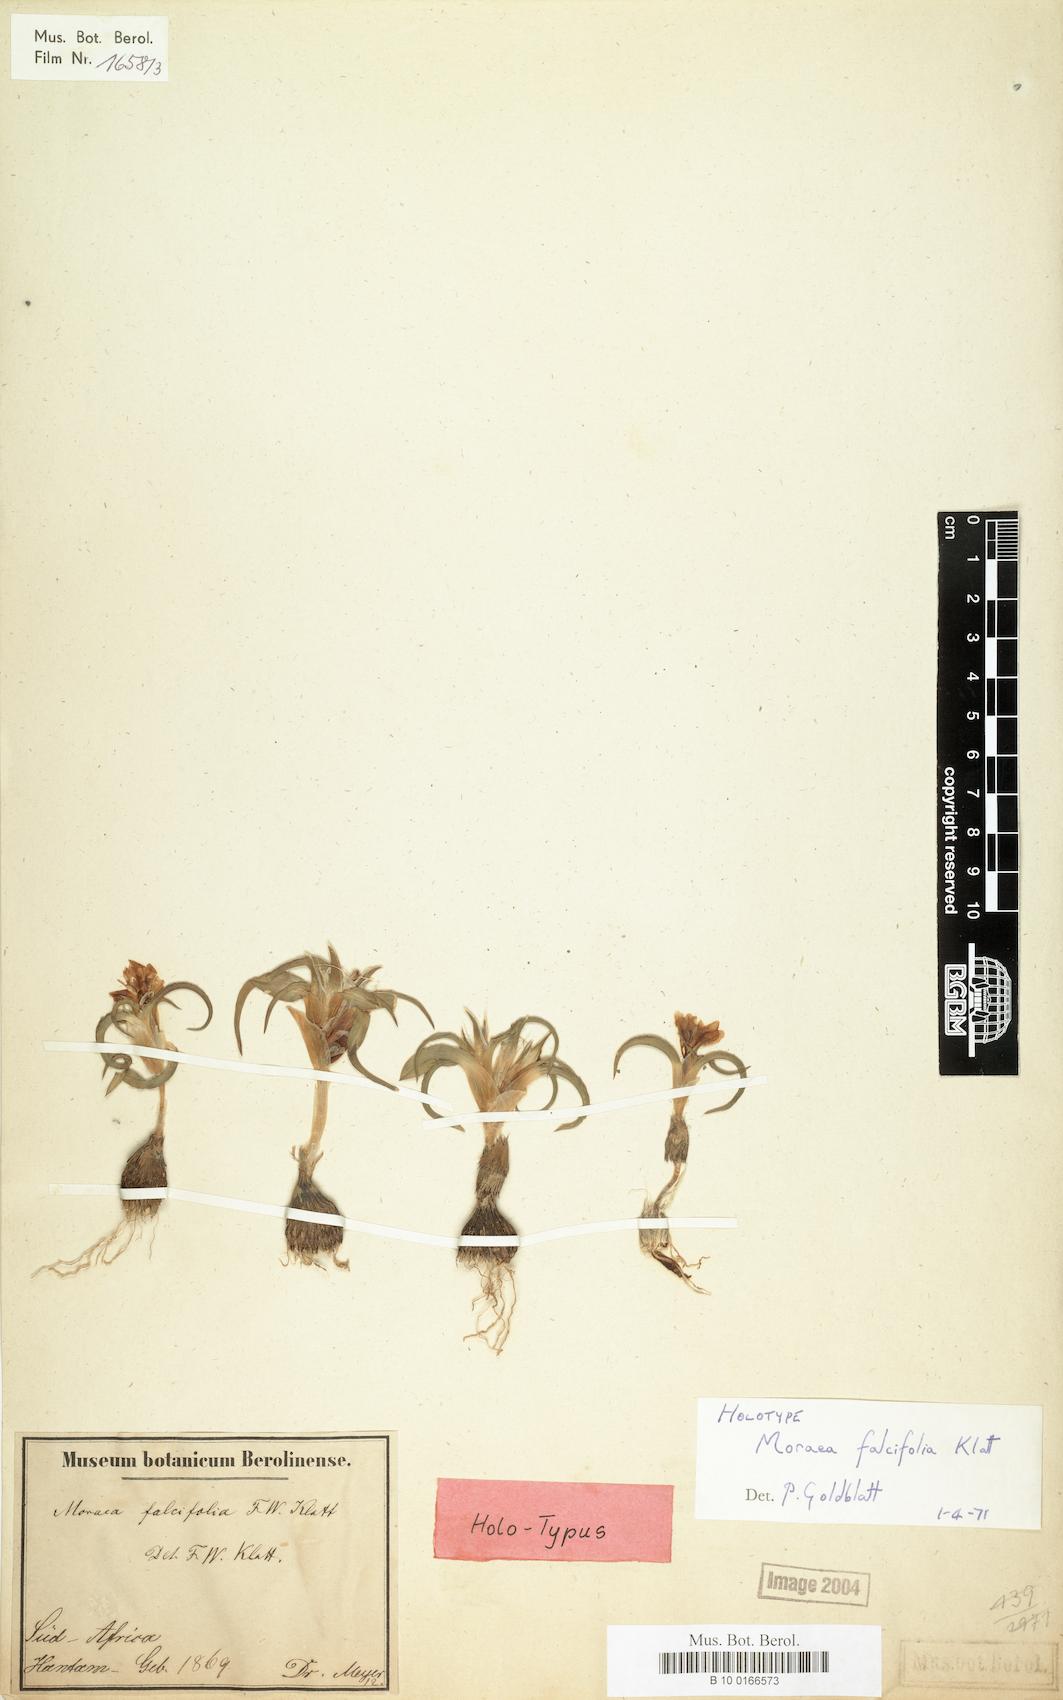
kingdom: Plantae
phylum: Tracheophyta
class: Liliopsida
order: Asparagales
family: Iridaceae
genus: Moraea
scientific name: Moraea falcifolia
